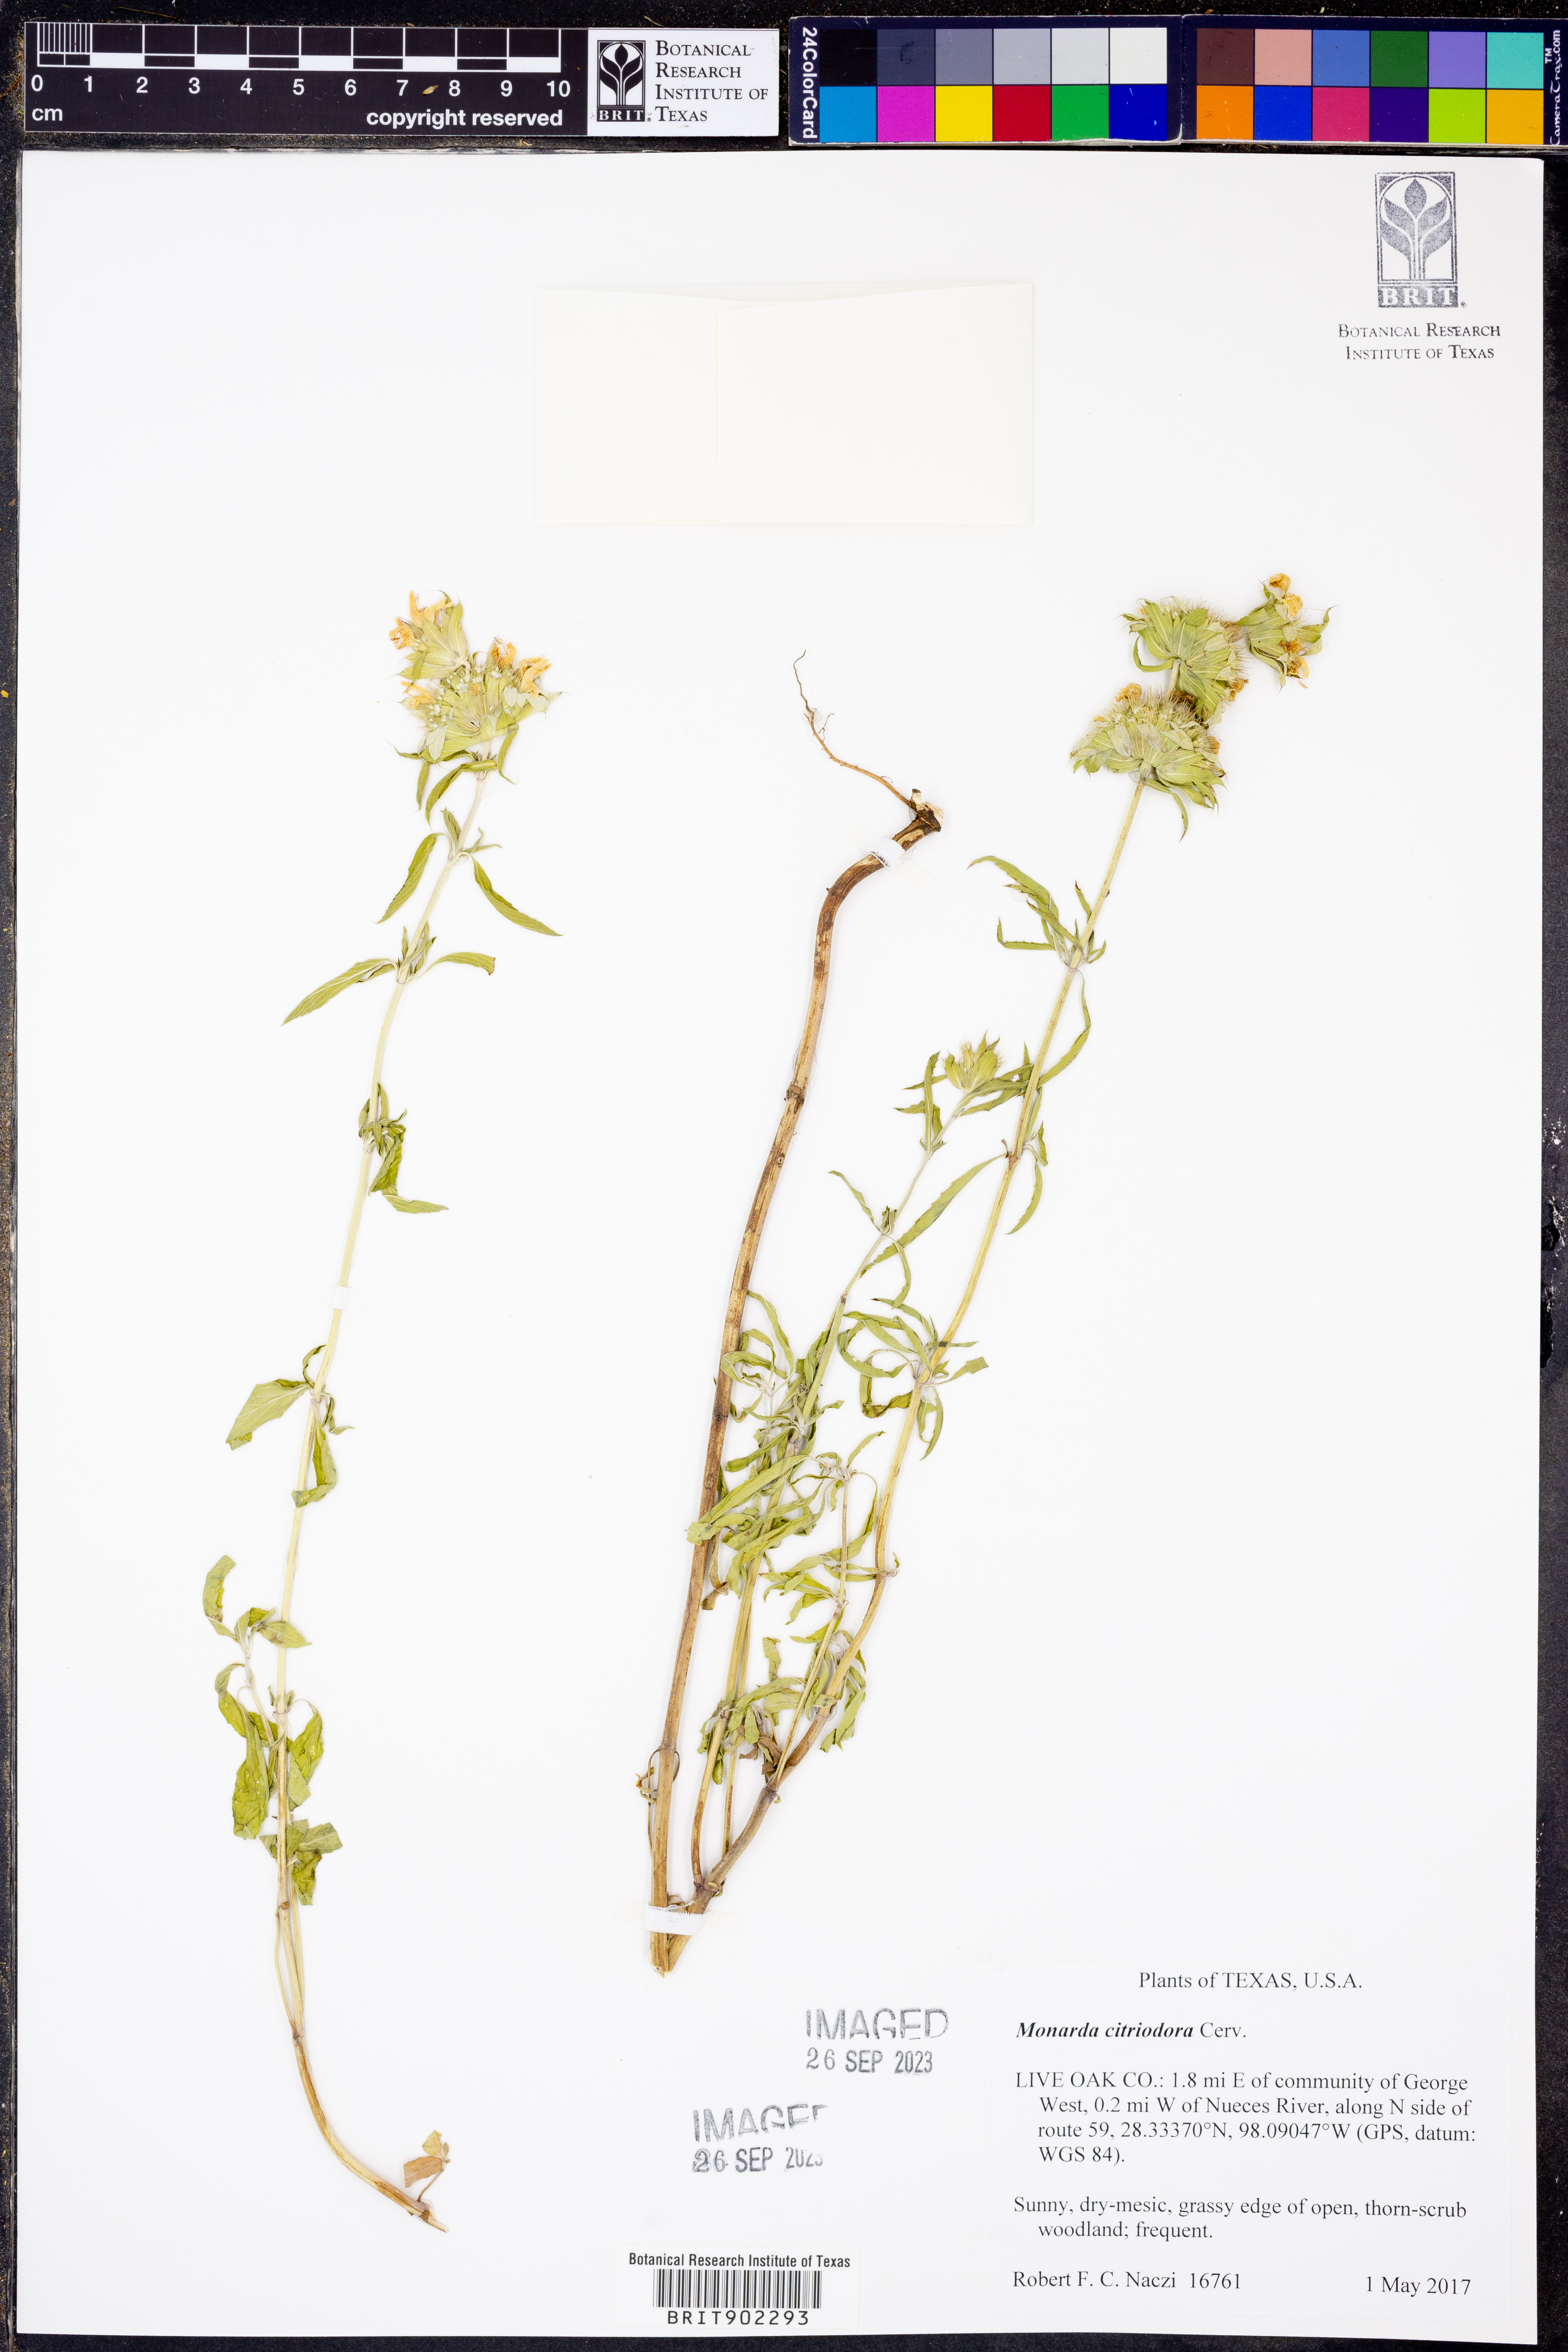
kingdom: Plantae
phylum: Tracheophyta
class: Magnoliopsida
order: Lamiales
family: Lamiaceae
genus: Monarda
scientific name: Monarda citriodora
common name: Lemon beebalm
